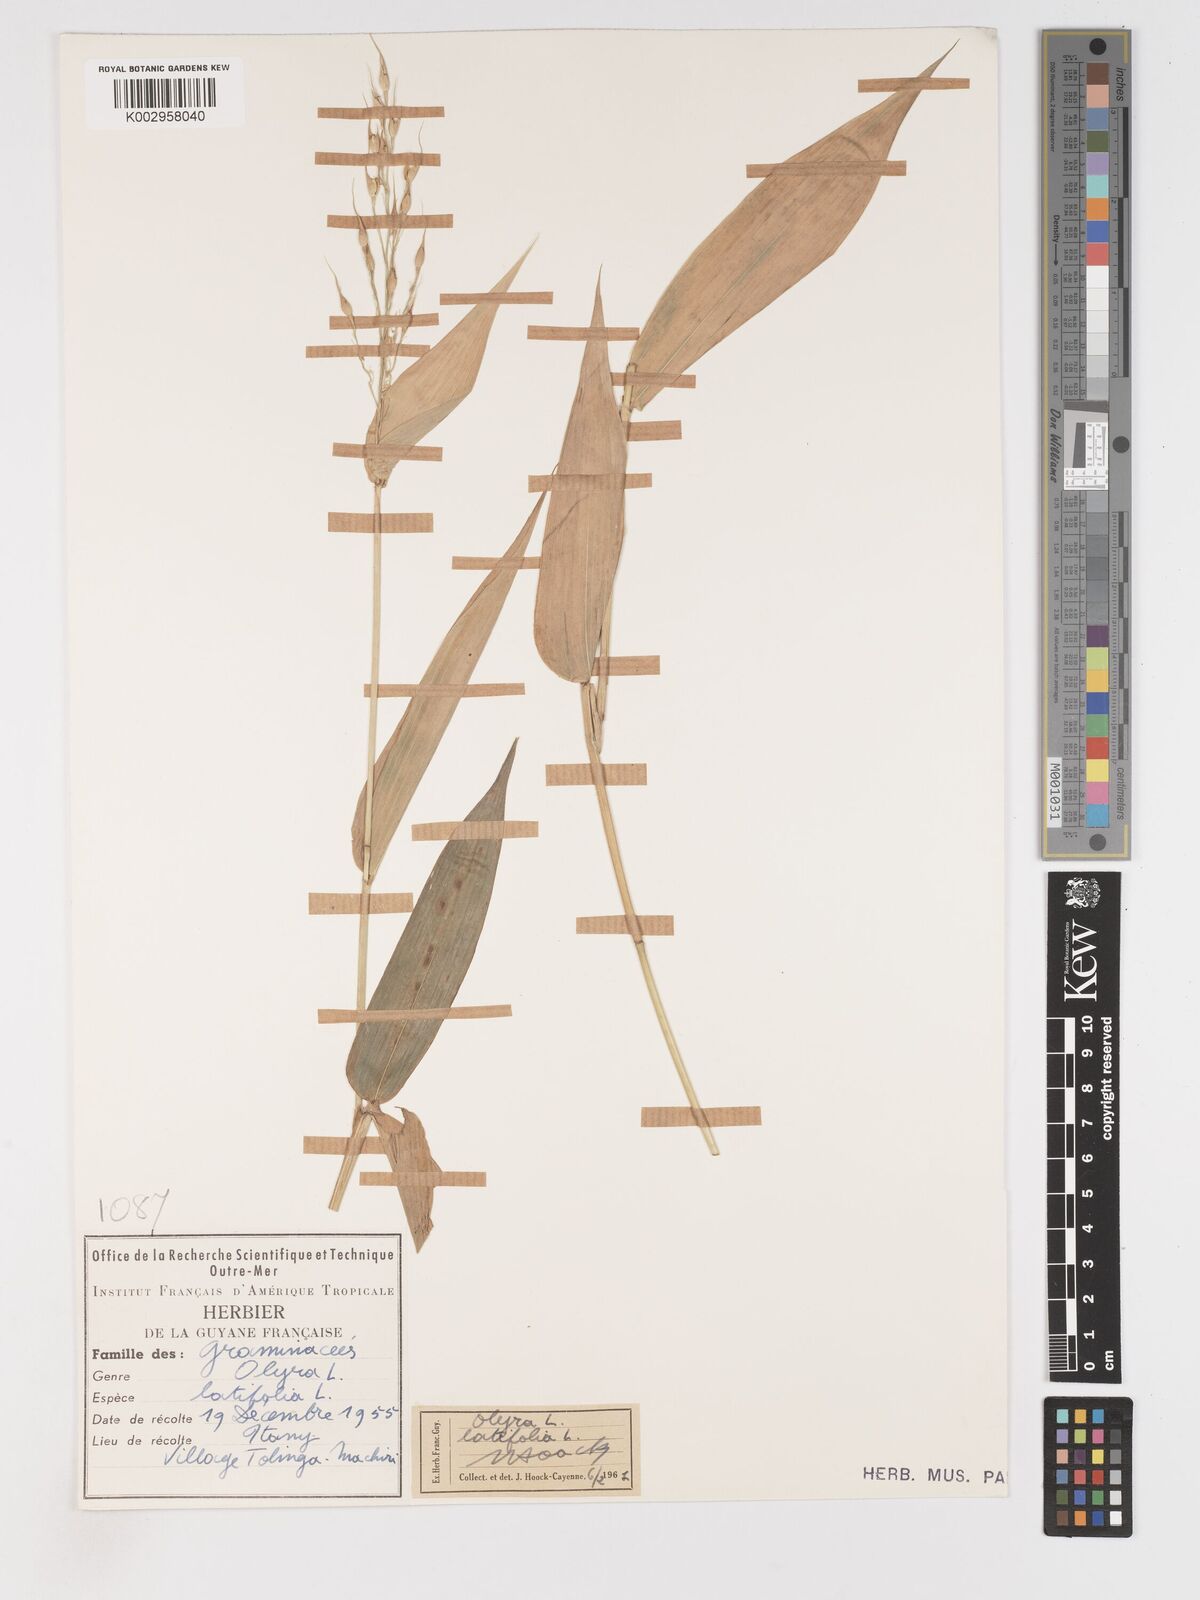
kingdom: Plantae
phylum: Tracheophyta
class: Liliopsida
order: Poales
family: Poaceae
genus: Olyra
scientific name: Olyra latifolia
